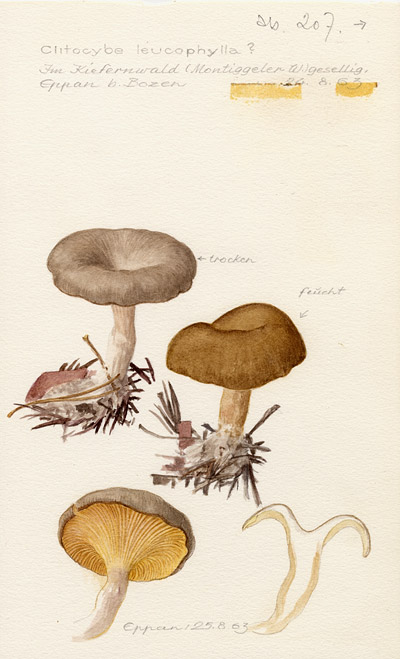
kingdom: Fungi
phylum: Basidiomycota
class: Agaricomycetes
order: Agaricales
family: Tricholomataceae
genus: Gamundia
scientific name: Gamundia leucophylla
